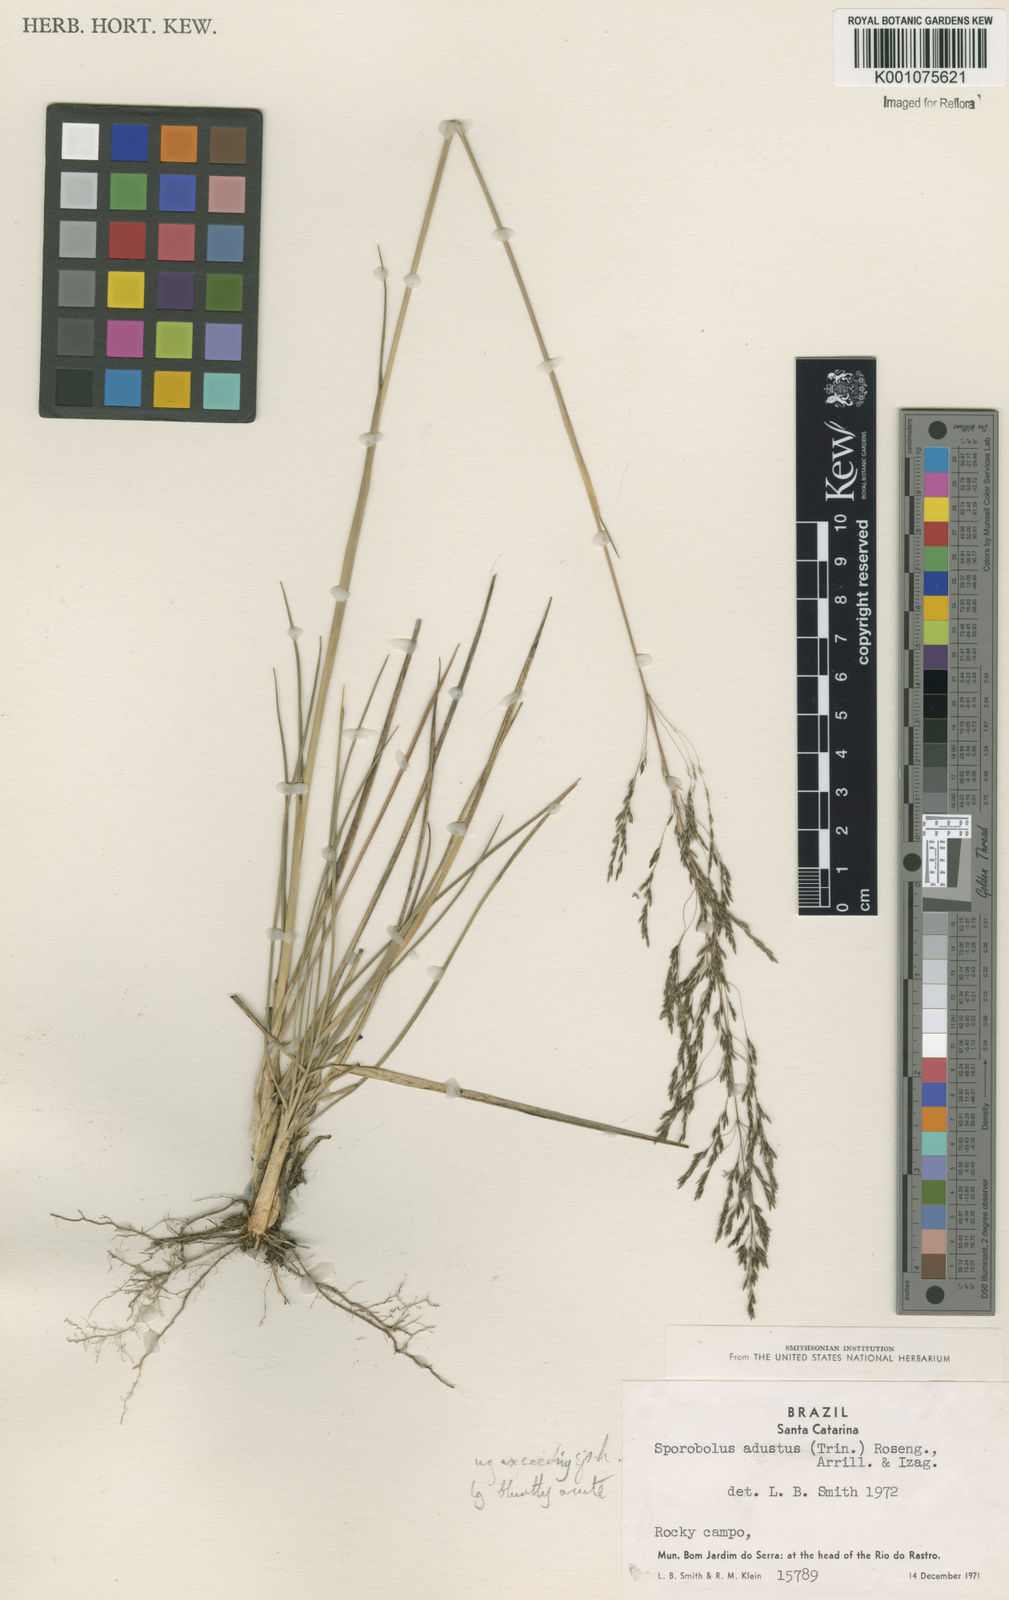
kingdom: Plantae
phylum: Tracheophyta
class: Liliopsida
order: Poales
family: Poaceae
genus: Sporobolus
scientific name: Sporobolus camporum
